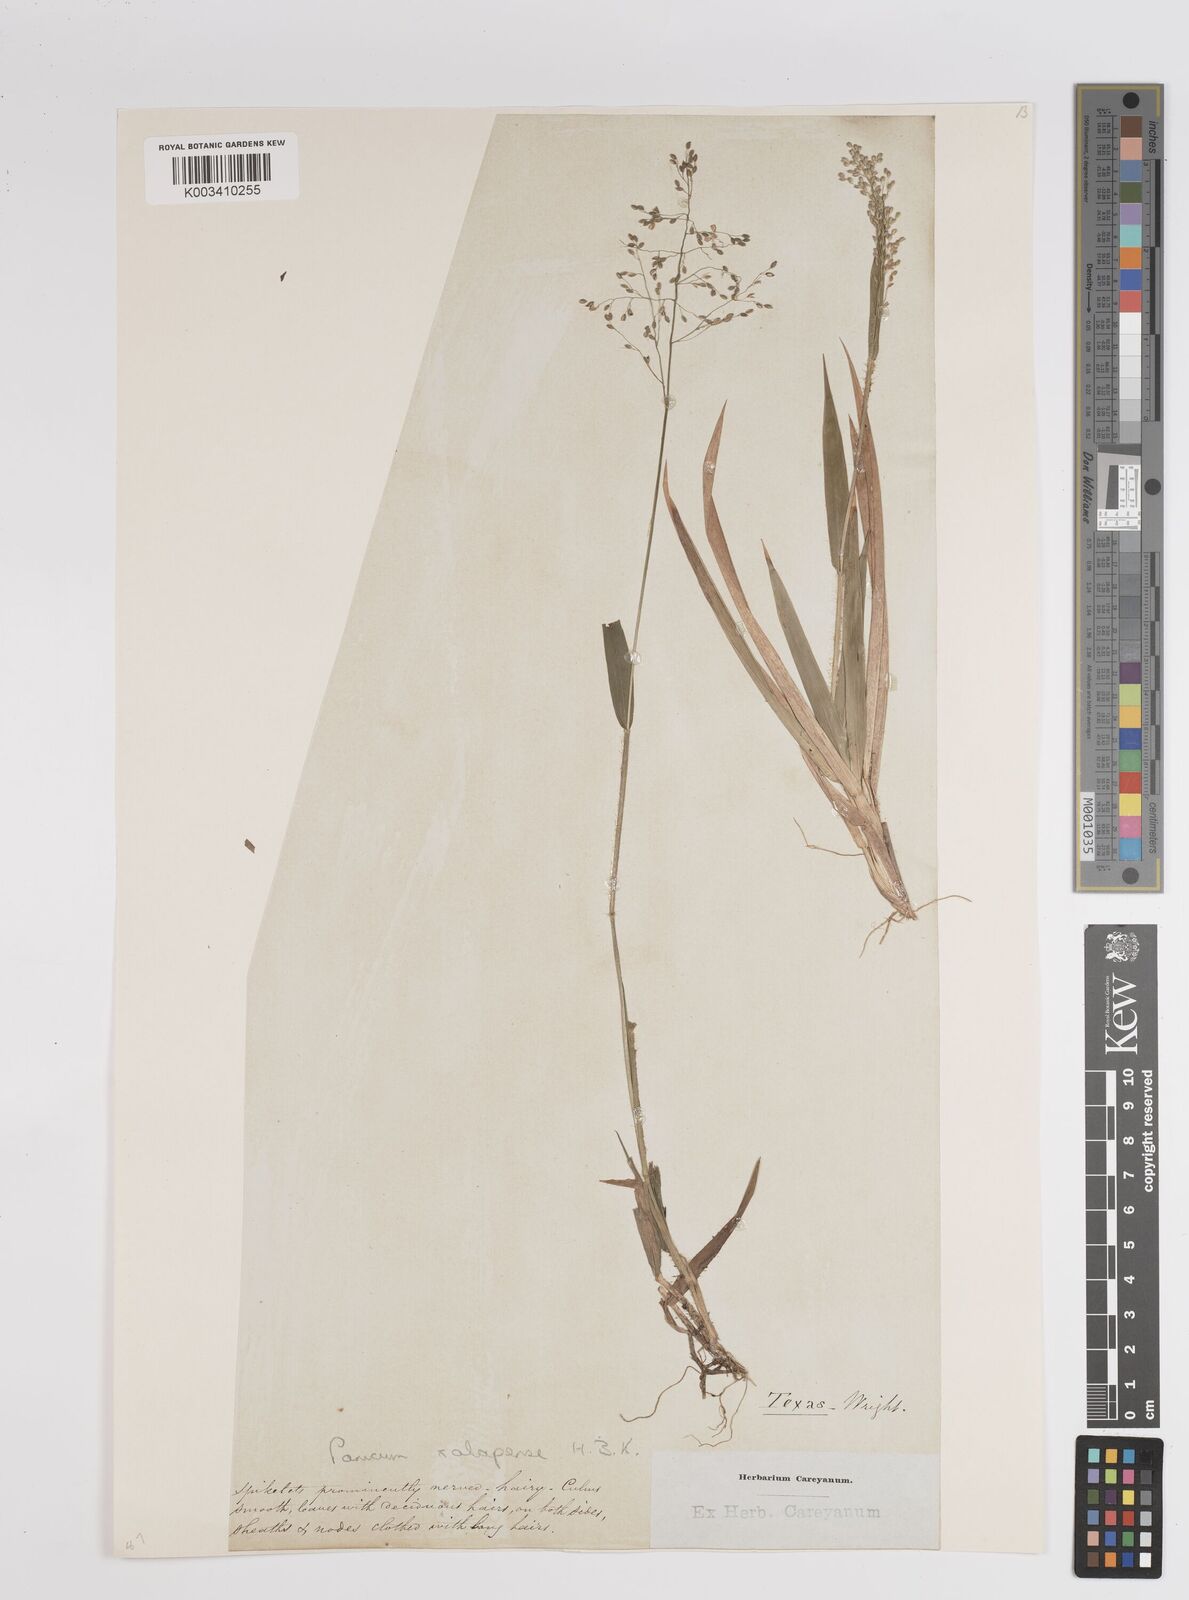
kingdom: Plantae
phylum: Tracheophyta
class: Liliopsida
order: Poales
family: Poaceae
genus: Dichanthelium
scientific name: Dichanthelium laxiflorum
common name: Soft-tuft panic grass
